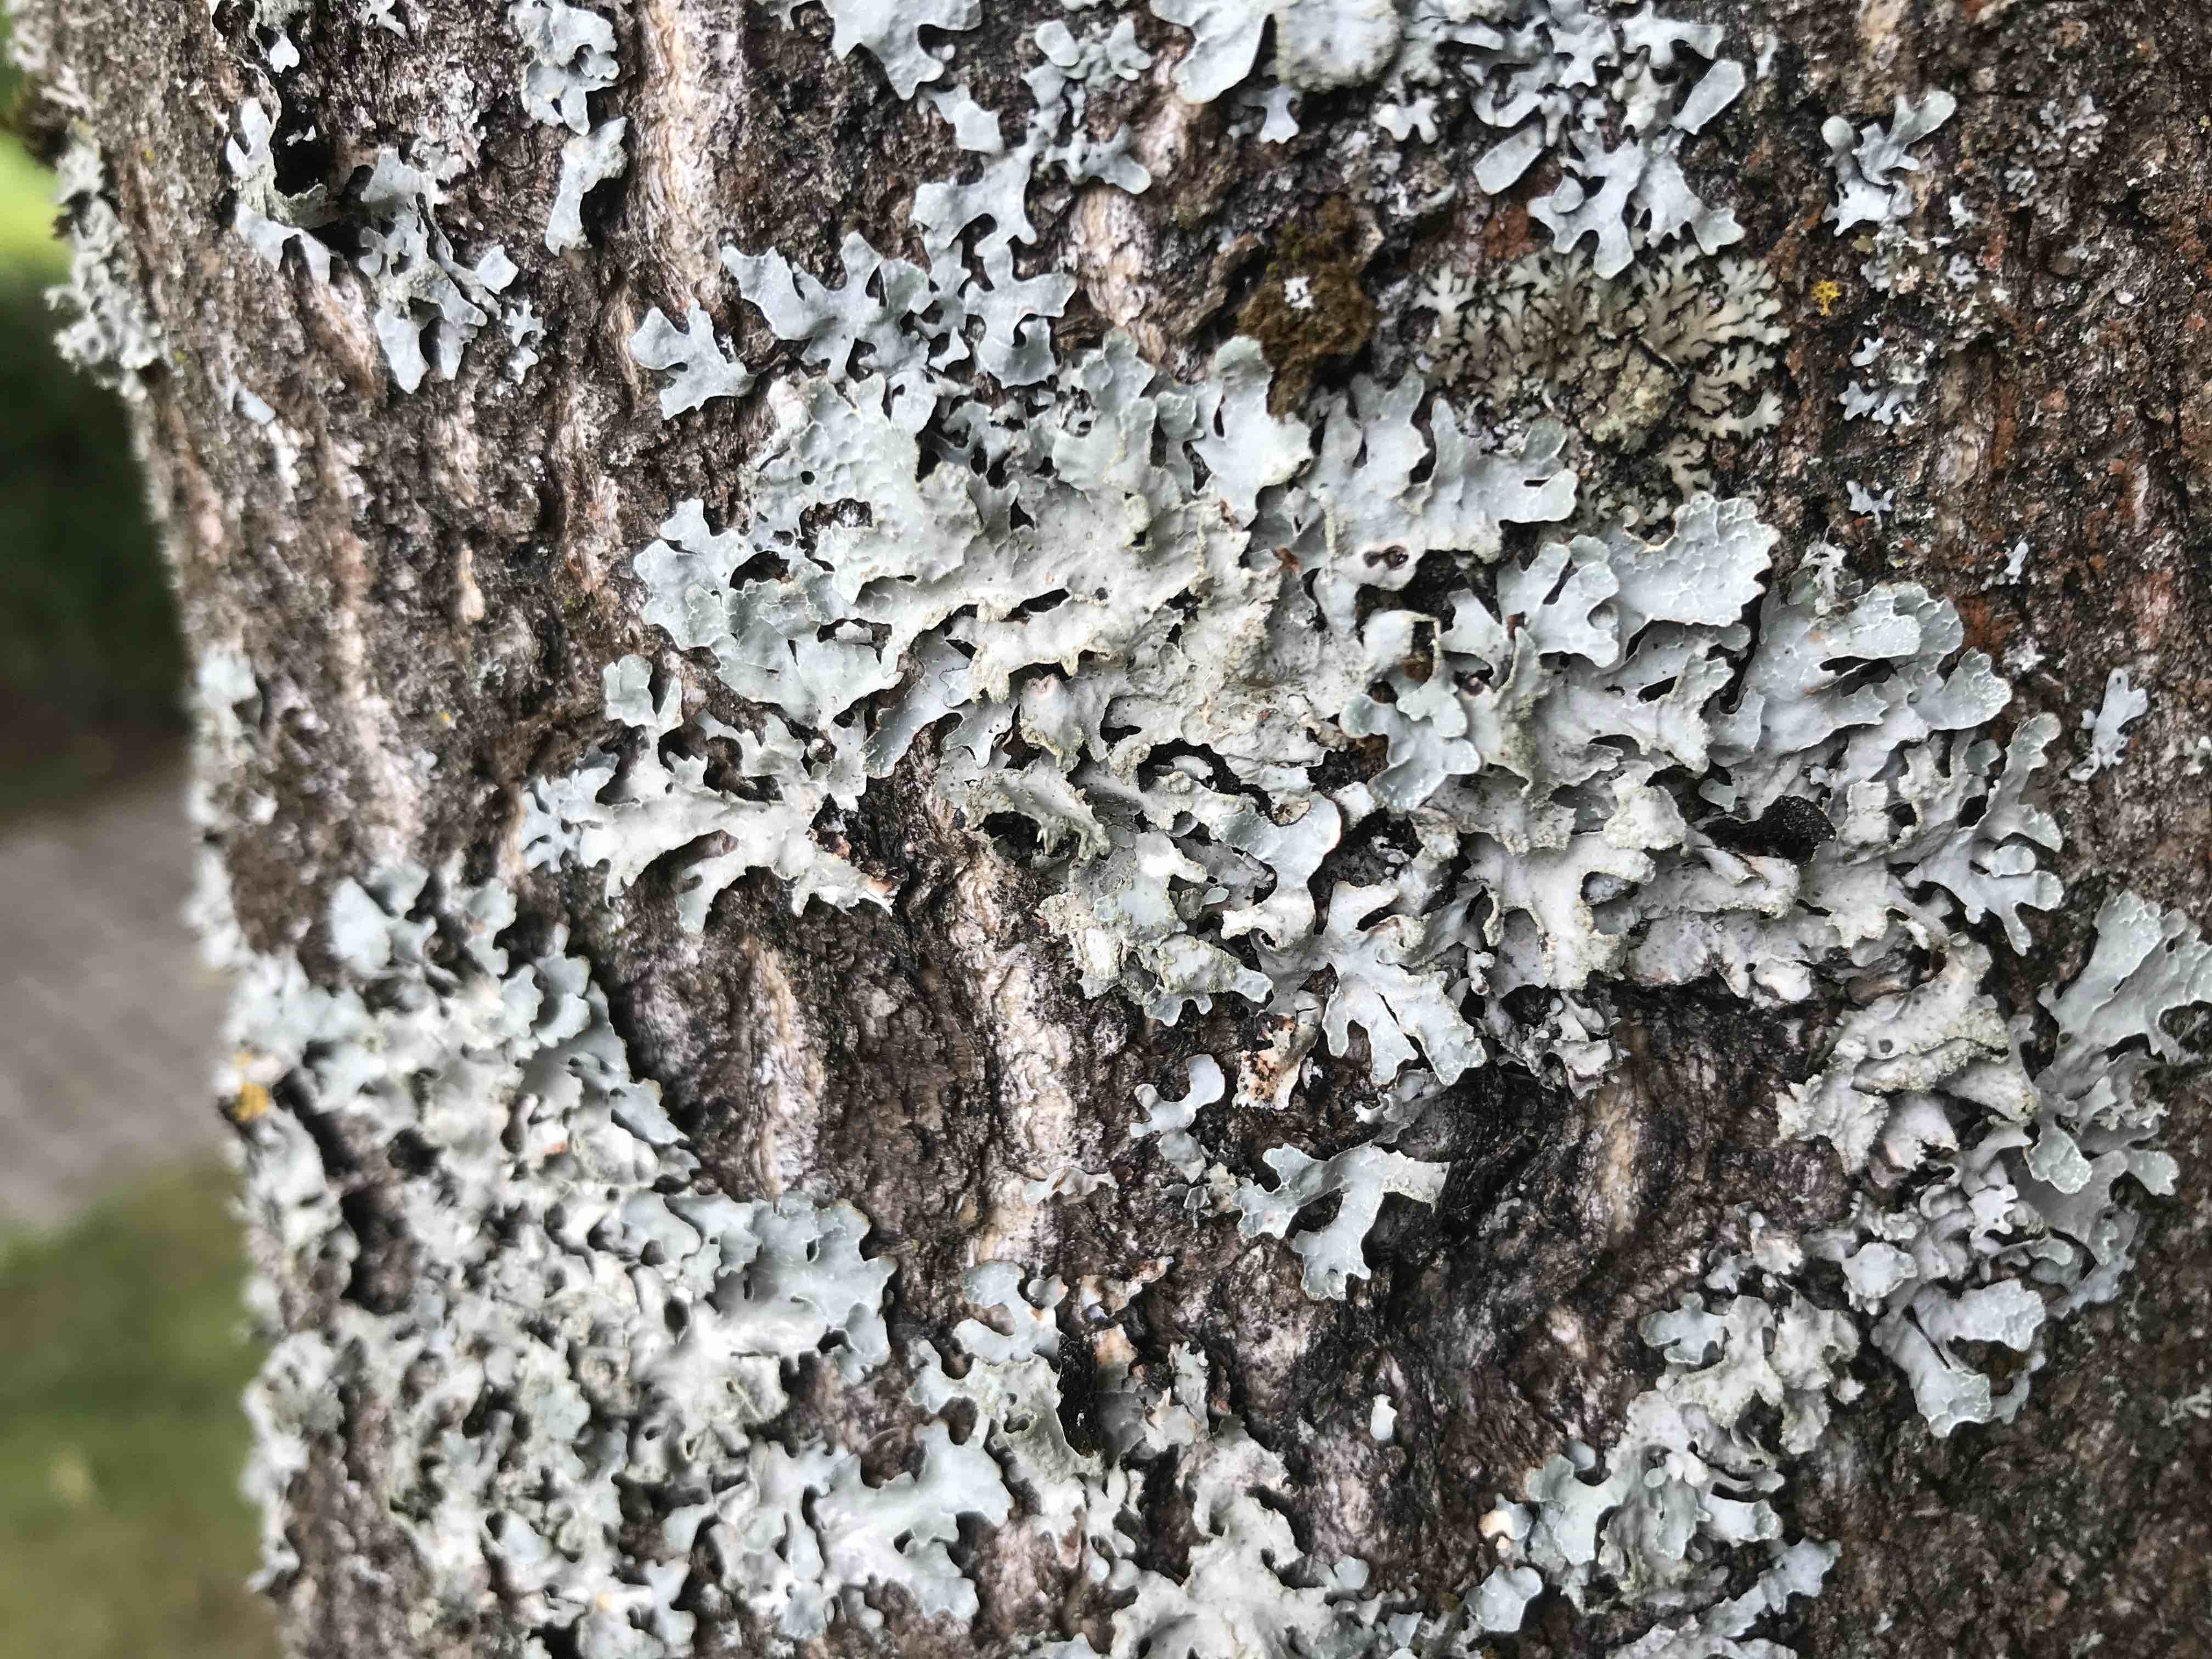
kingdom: Fungi
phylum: Ascomycota
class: Lecanoromycetes
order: Lecanorales
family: Parmeliaceae
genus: Parmelia
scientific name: Parmelia sulcata
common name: rynket skållav
